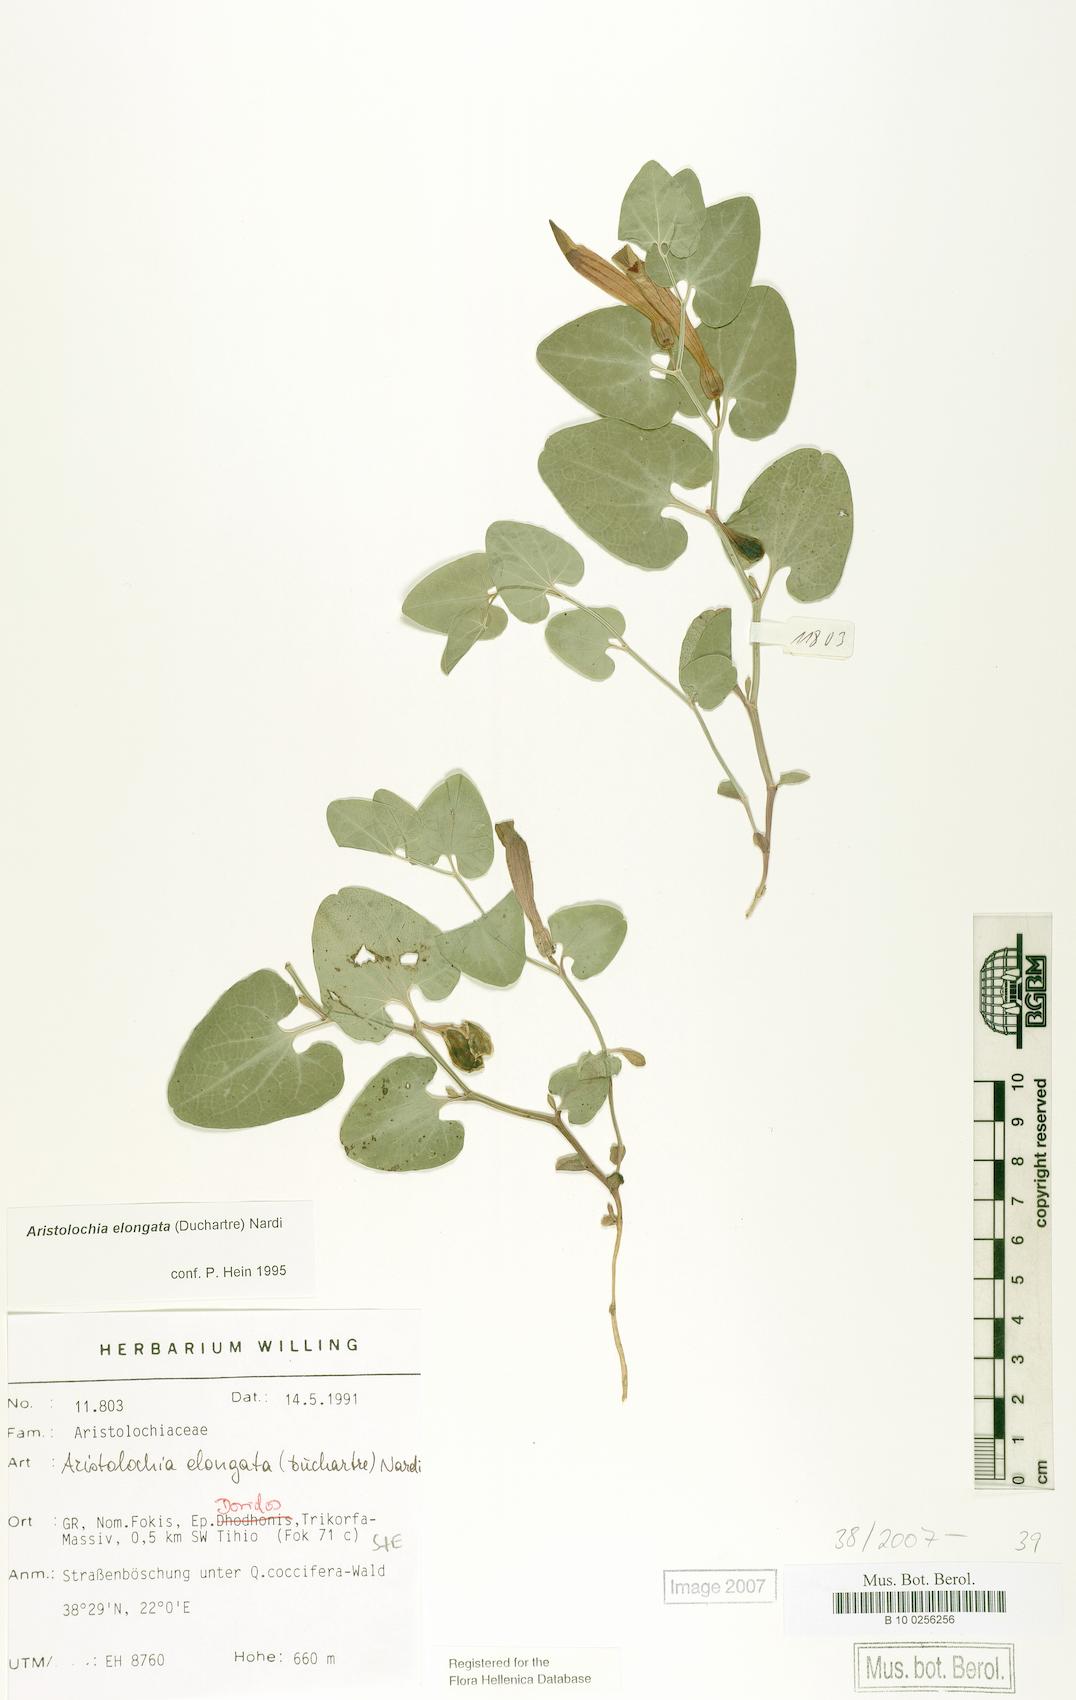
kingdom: Plantae
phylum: Tracheophyta
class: Magnoliopsida
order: Piperales
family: Aristolochiaceae
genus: Aristolochia
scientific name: Aristolochia nardiana
